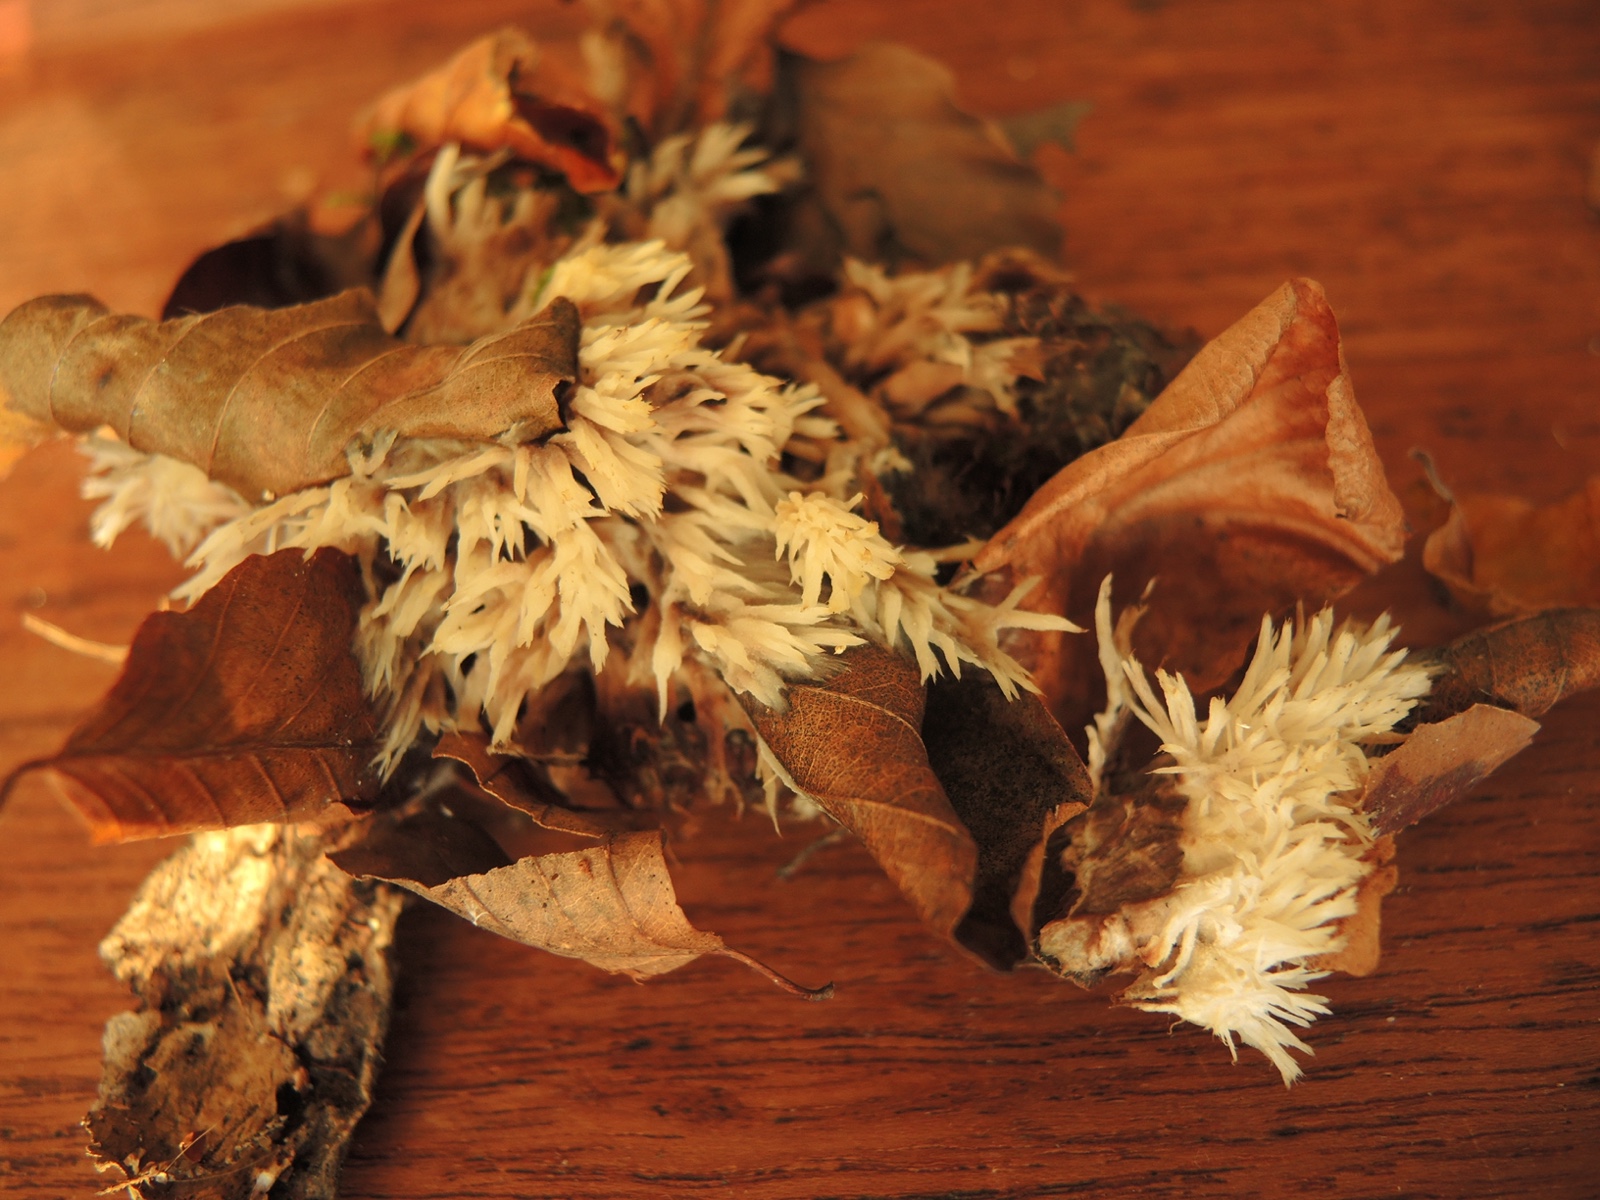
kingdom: Fungi
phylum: Basidiomycota
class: Agaricomycetes
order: Thelephorales
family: Thelephoraceae
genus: Thelephora
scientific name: Thelephora penicillata
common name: fladtrådt frynsesvamp
